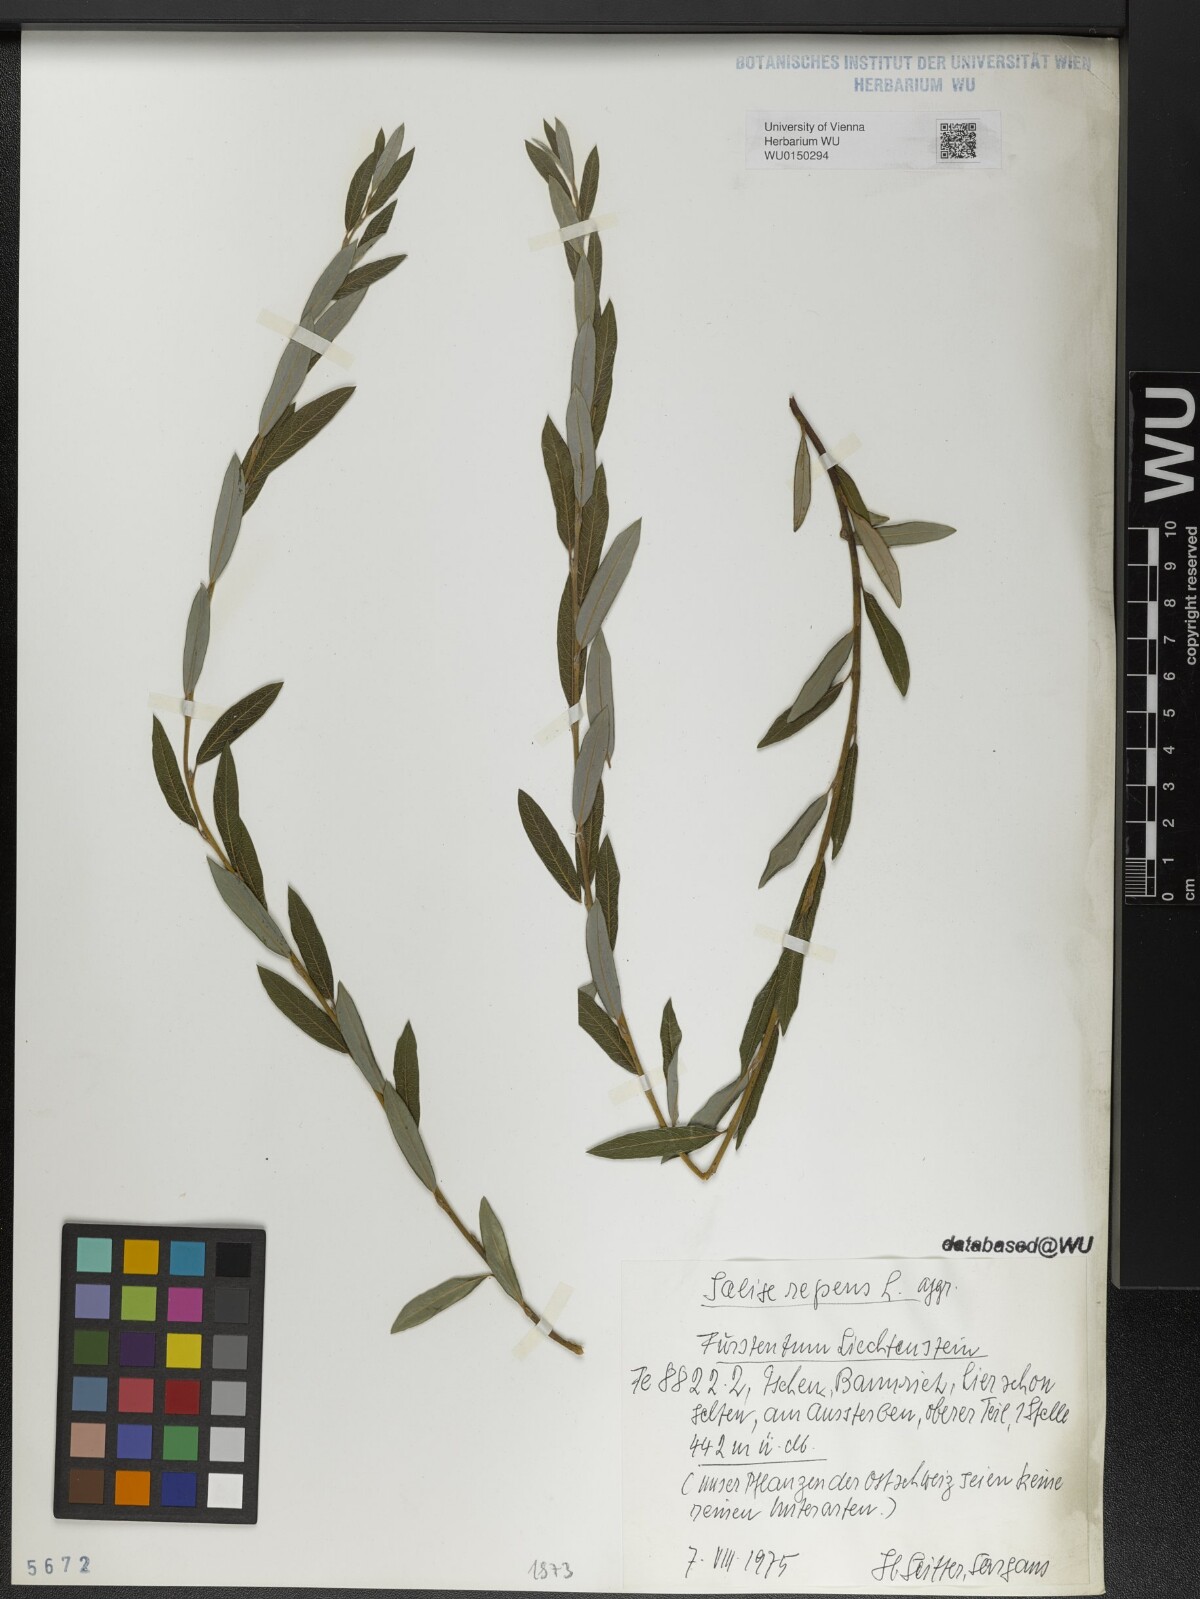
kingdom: Plantae
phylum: Tracheophyta
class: Magnoliopsida
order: Malpighiales
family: Salicaceae
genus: Salix
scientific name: Salix repens
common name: Creeping willow
